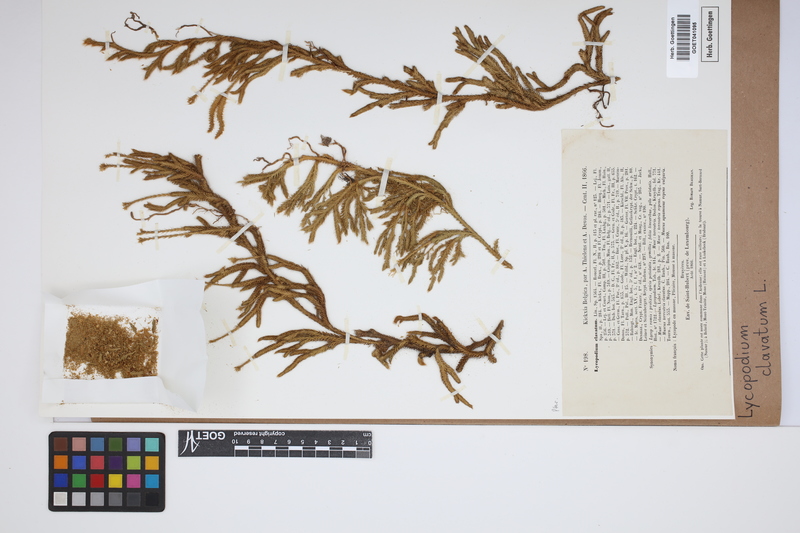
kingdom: Plantae
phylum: Tracheophyta
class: Lycopodiopsida
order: Lycopodiales
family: Lycopodiaceae
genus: Lycopodium
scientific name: Lycopodium clavatum
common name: Stag's-horn clubmoss
